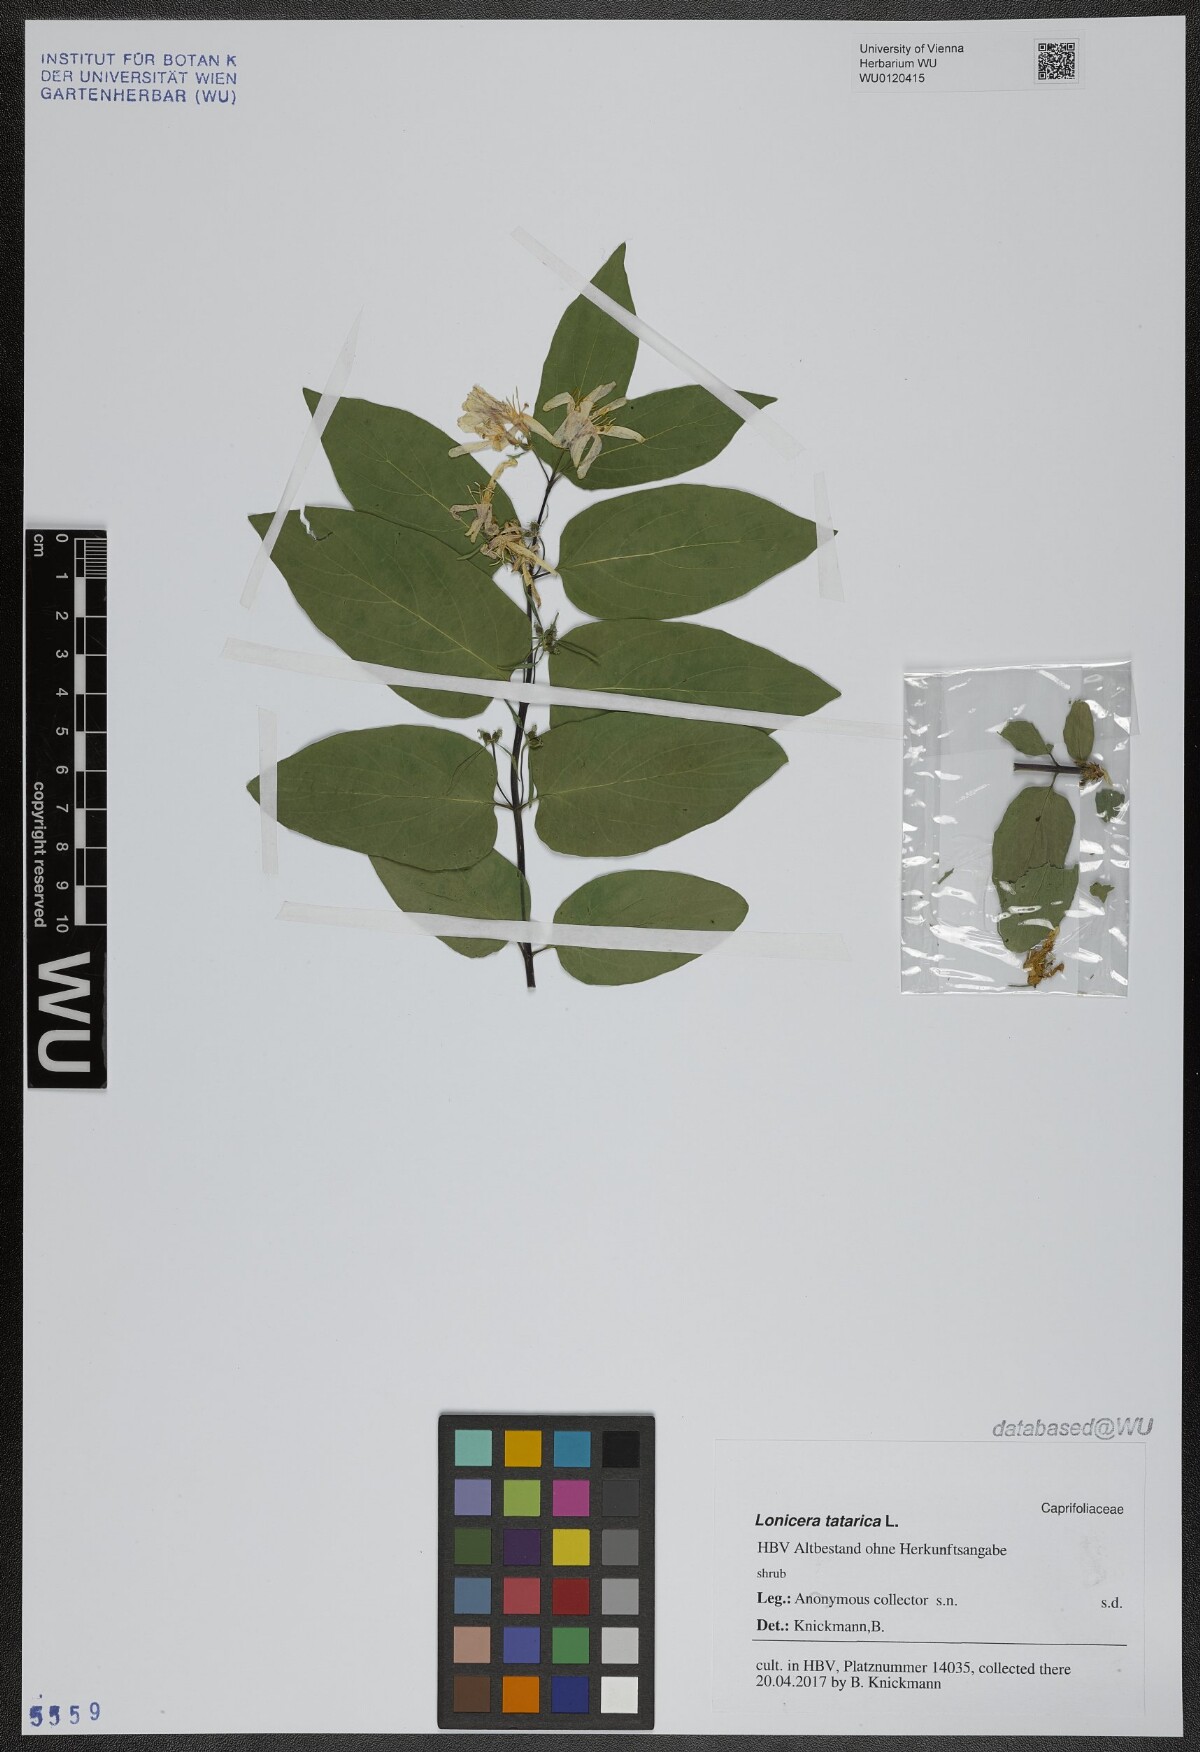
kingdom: Plantae
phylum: Tracheophyta
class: Magnoliopsida
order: Dipsacales
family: Caprifoliaceae
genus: Lonicera
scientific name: Lonicera tatarica
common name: Tatarian honeysuckle
